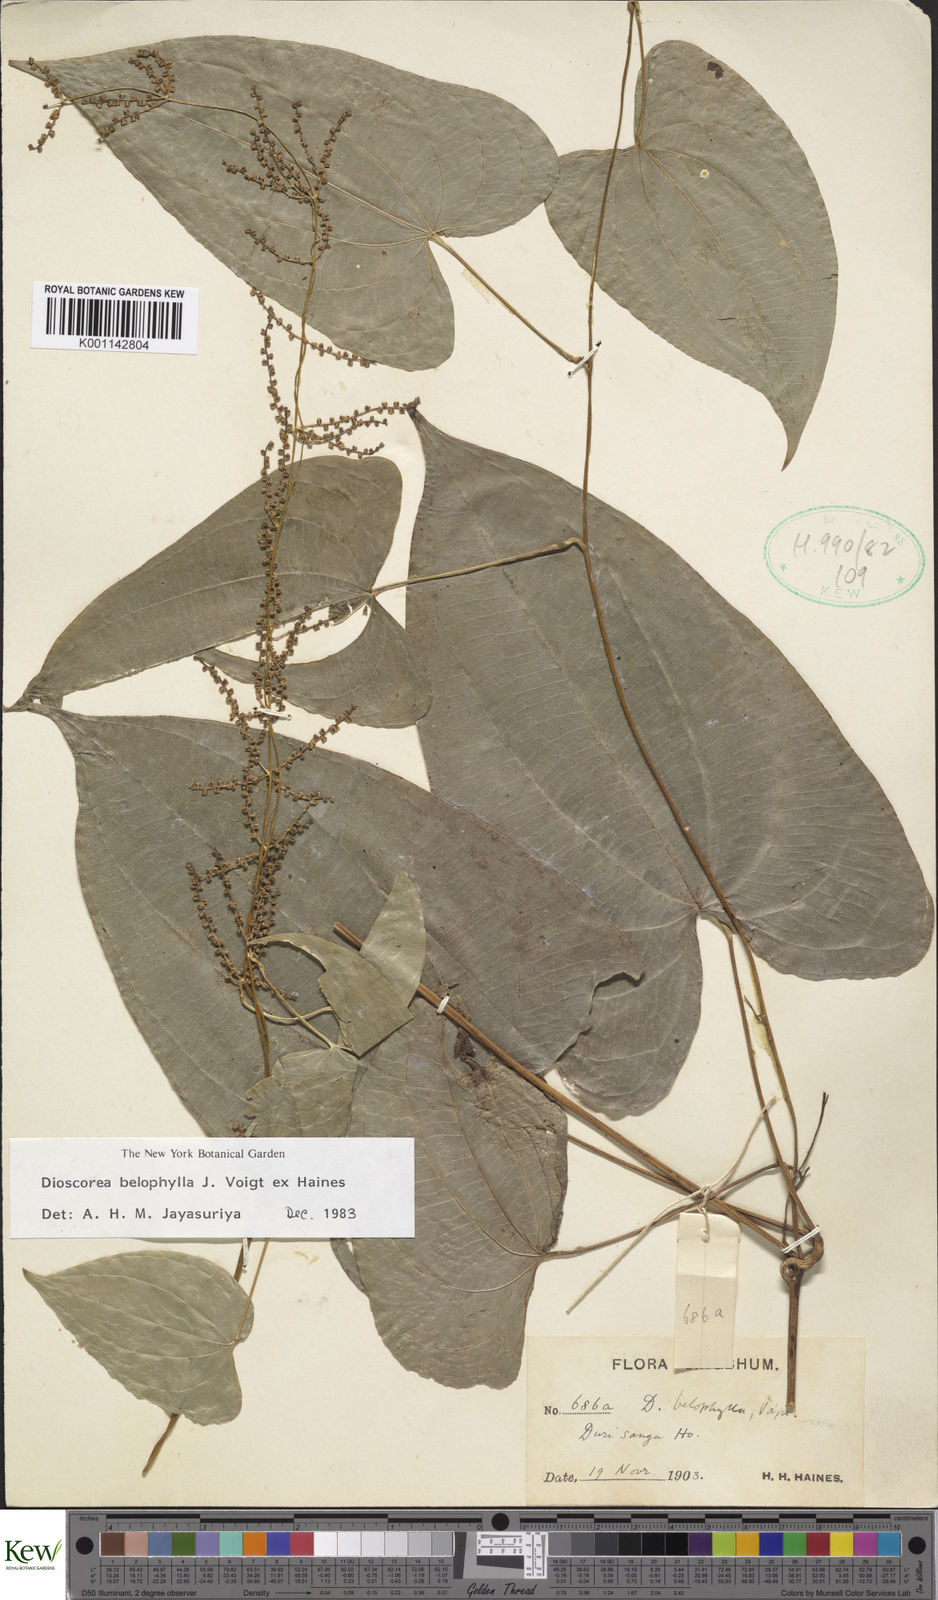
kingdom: Plantae
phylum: Tracheophyta
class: Liliopsida
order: Dioscoreales
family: Dioscoreaceae
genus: Dioscorea
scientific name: Dioscorea belophylla
